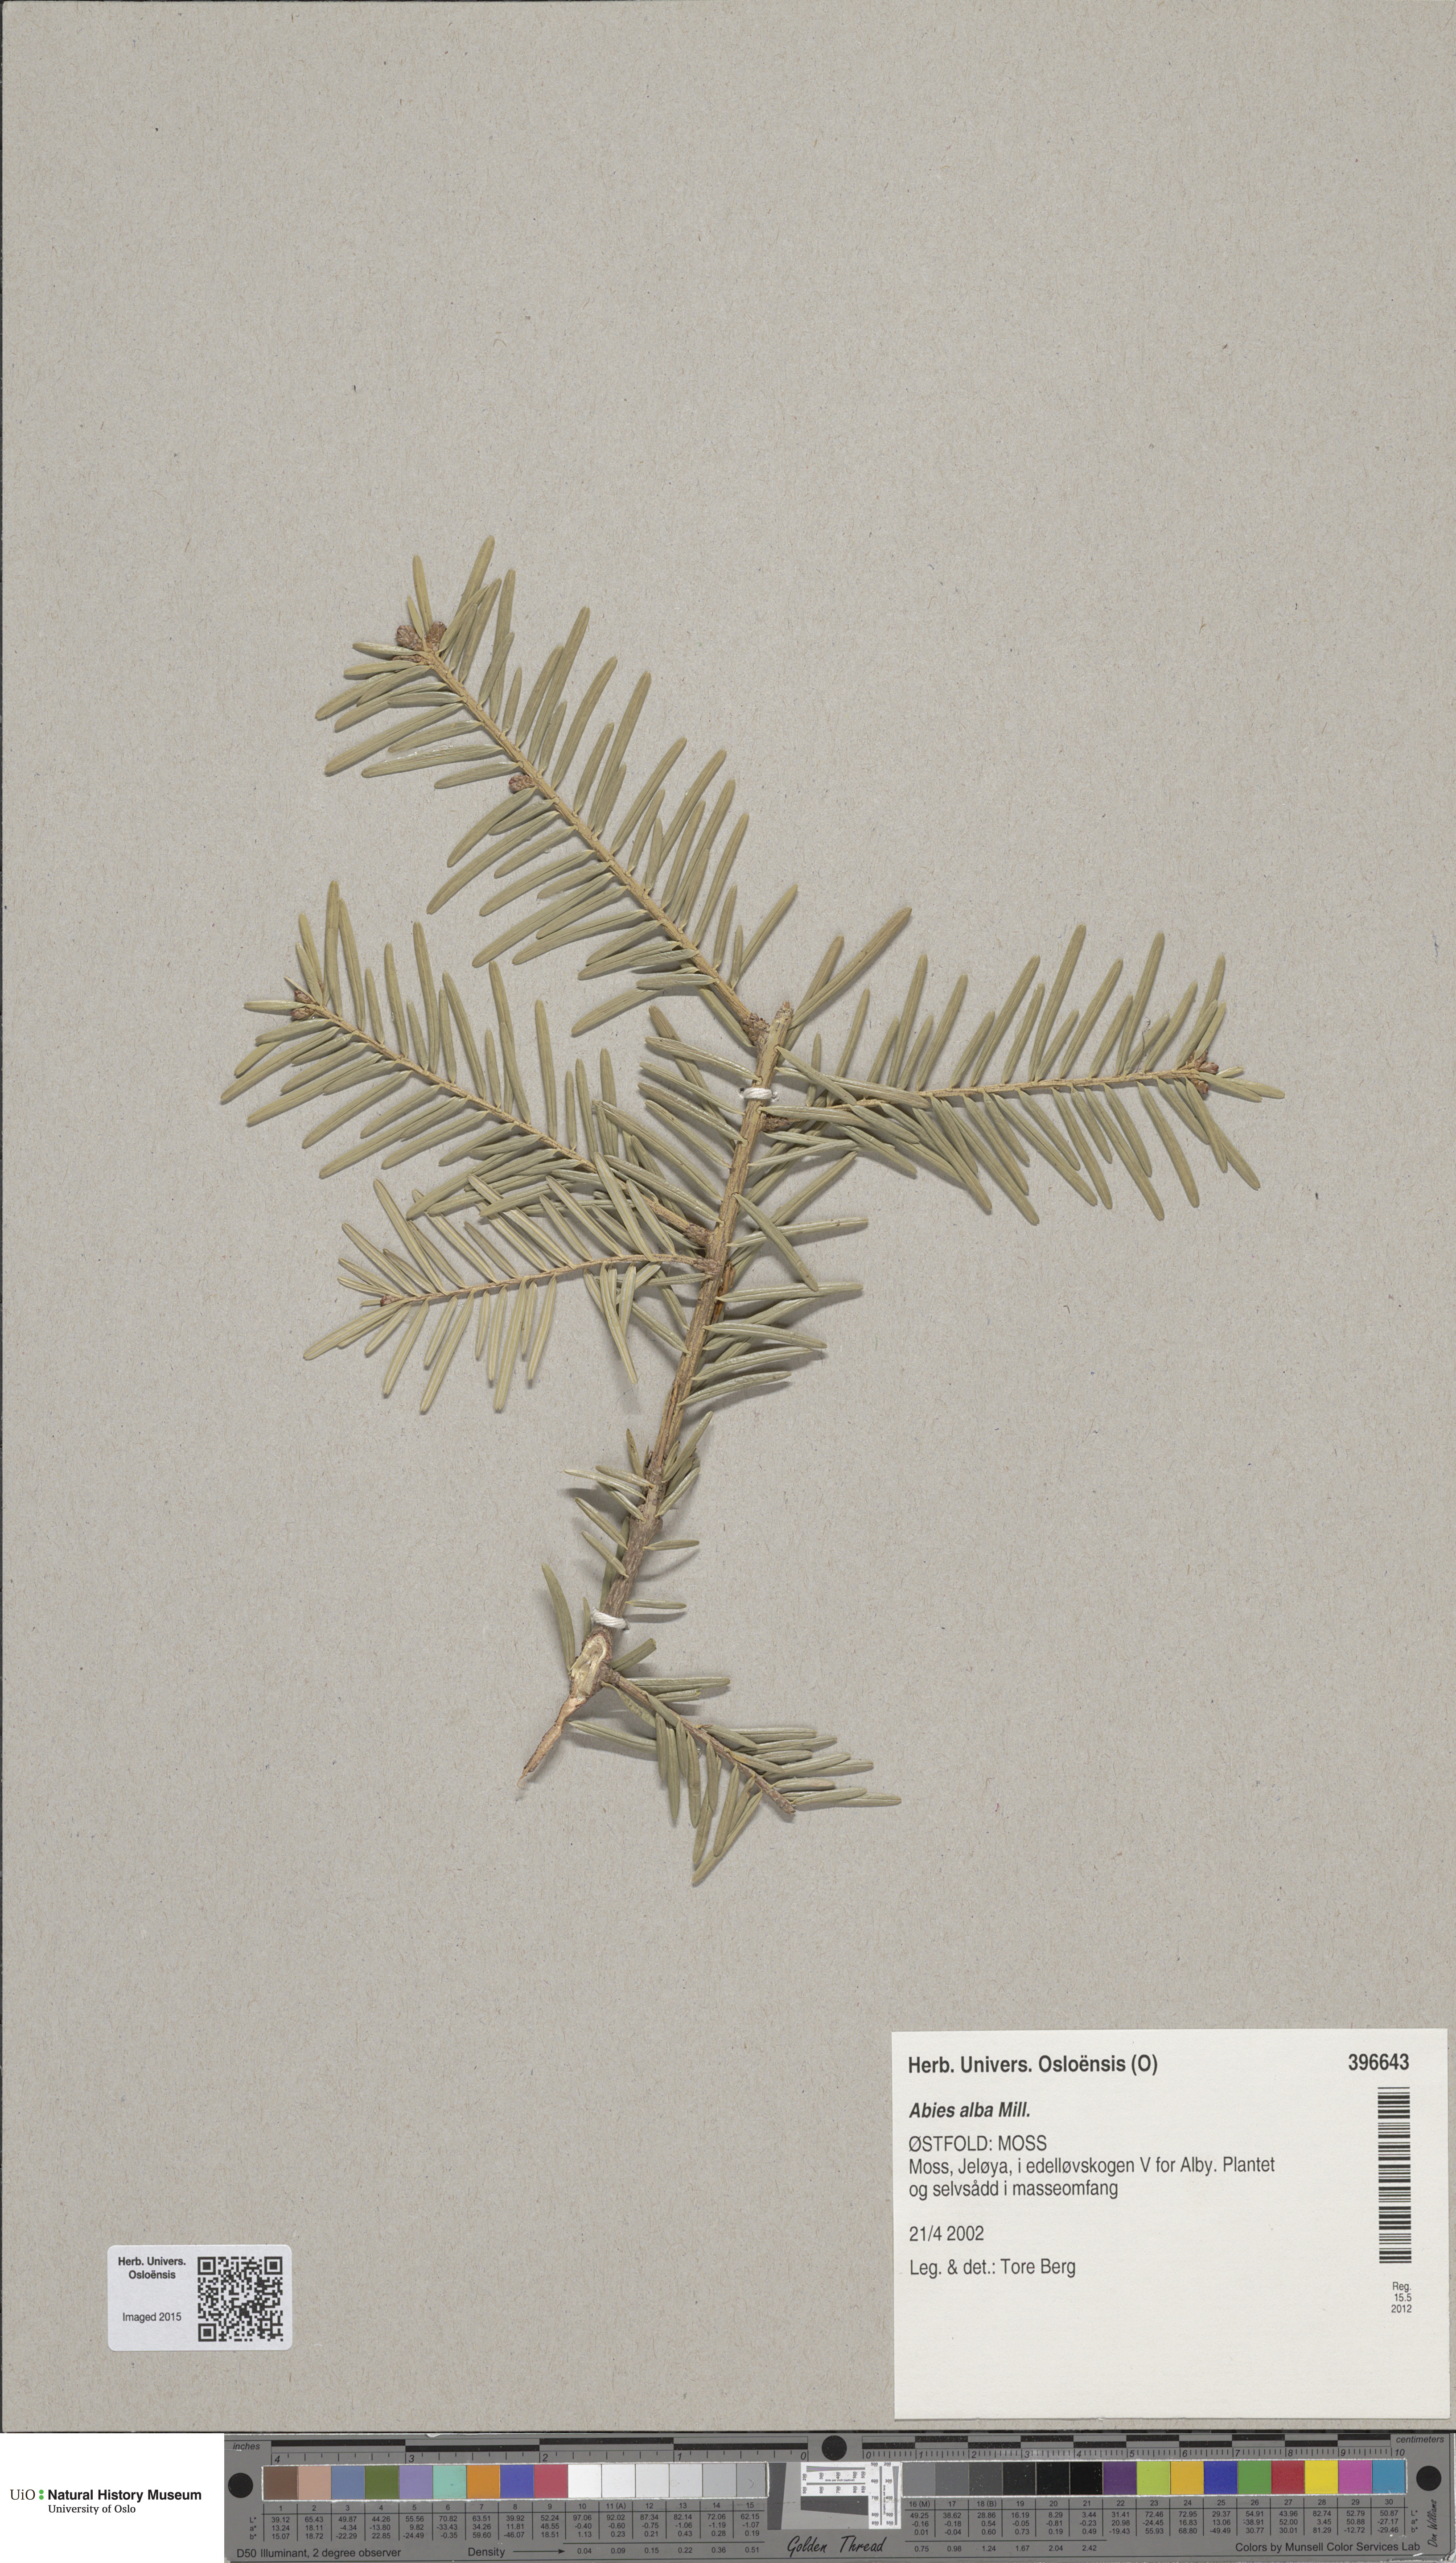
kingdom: Plantae
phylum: Tracheophyta
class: Pinopsida
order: Pinales
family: Pinaceae
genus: Abies
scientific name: Abies alba
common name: Silver fir
